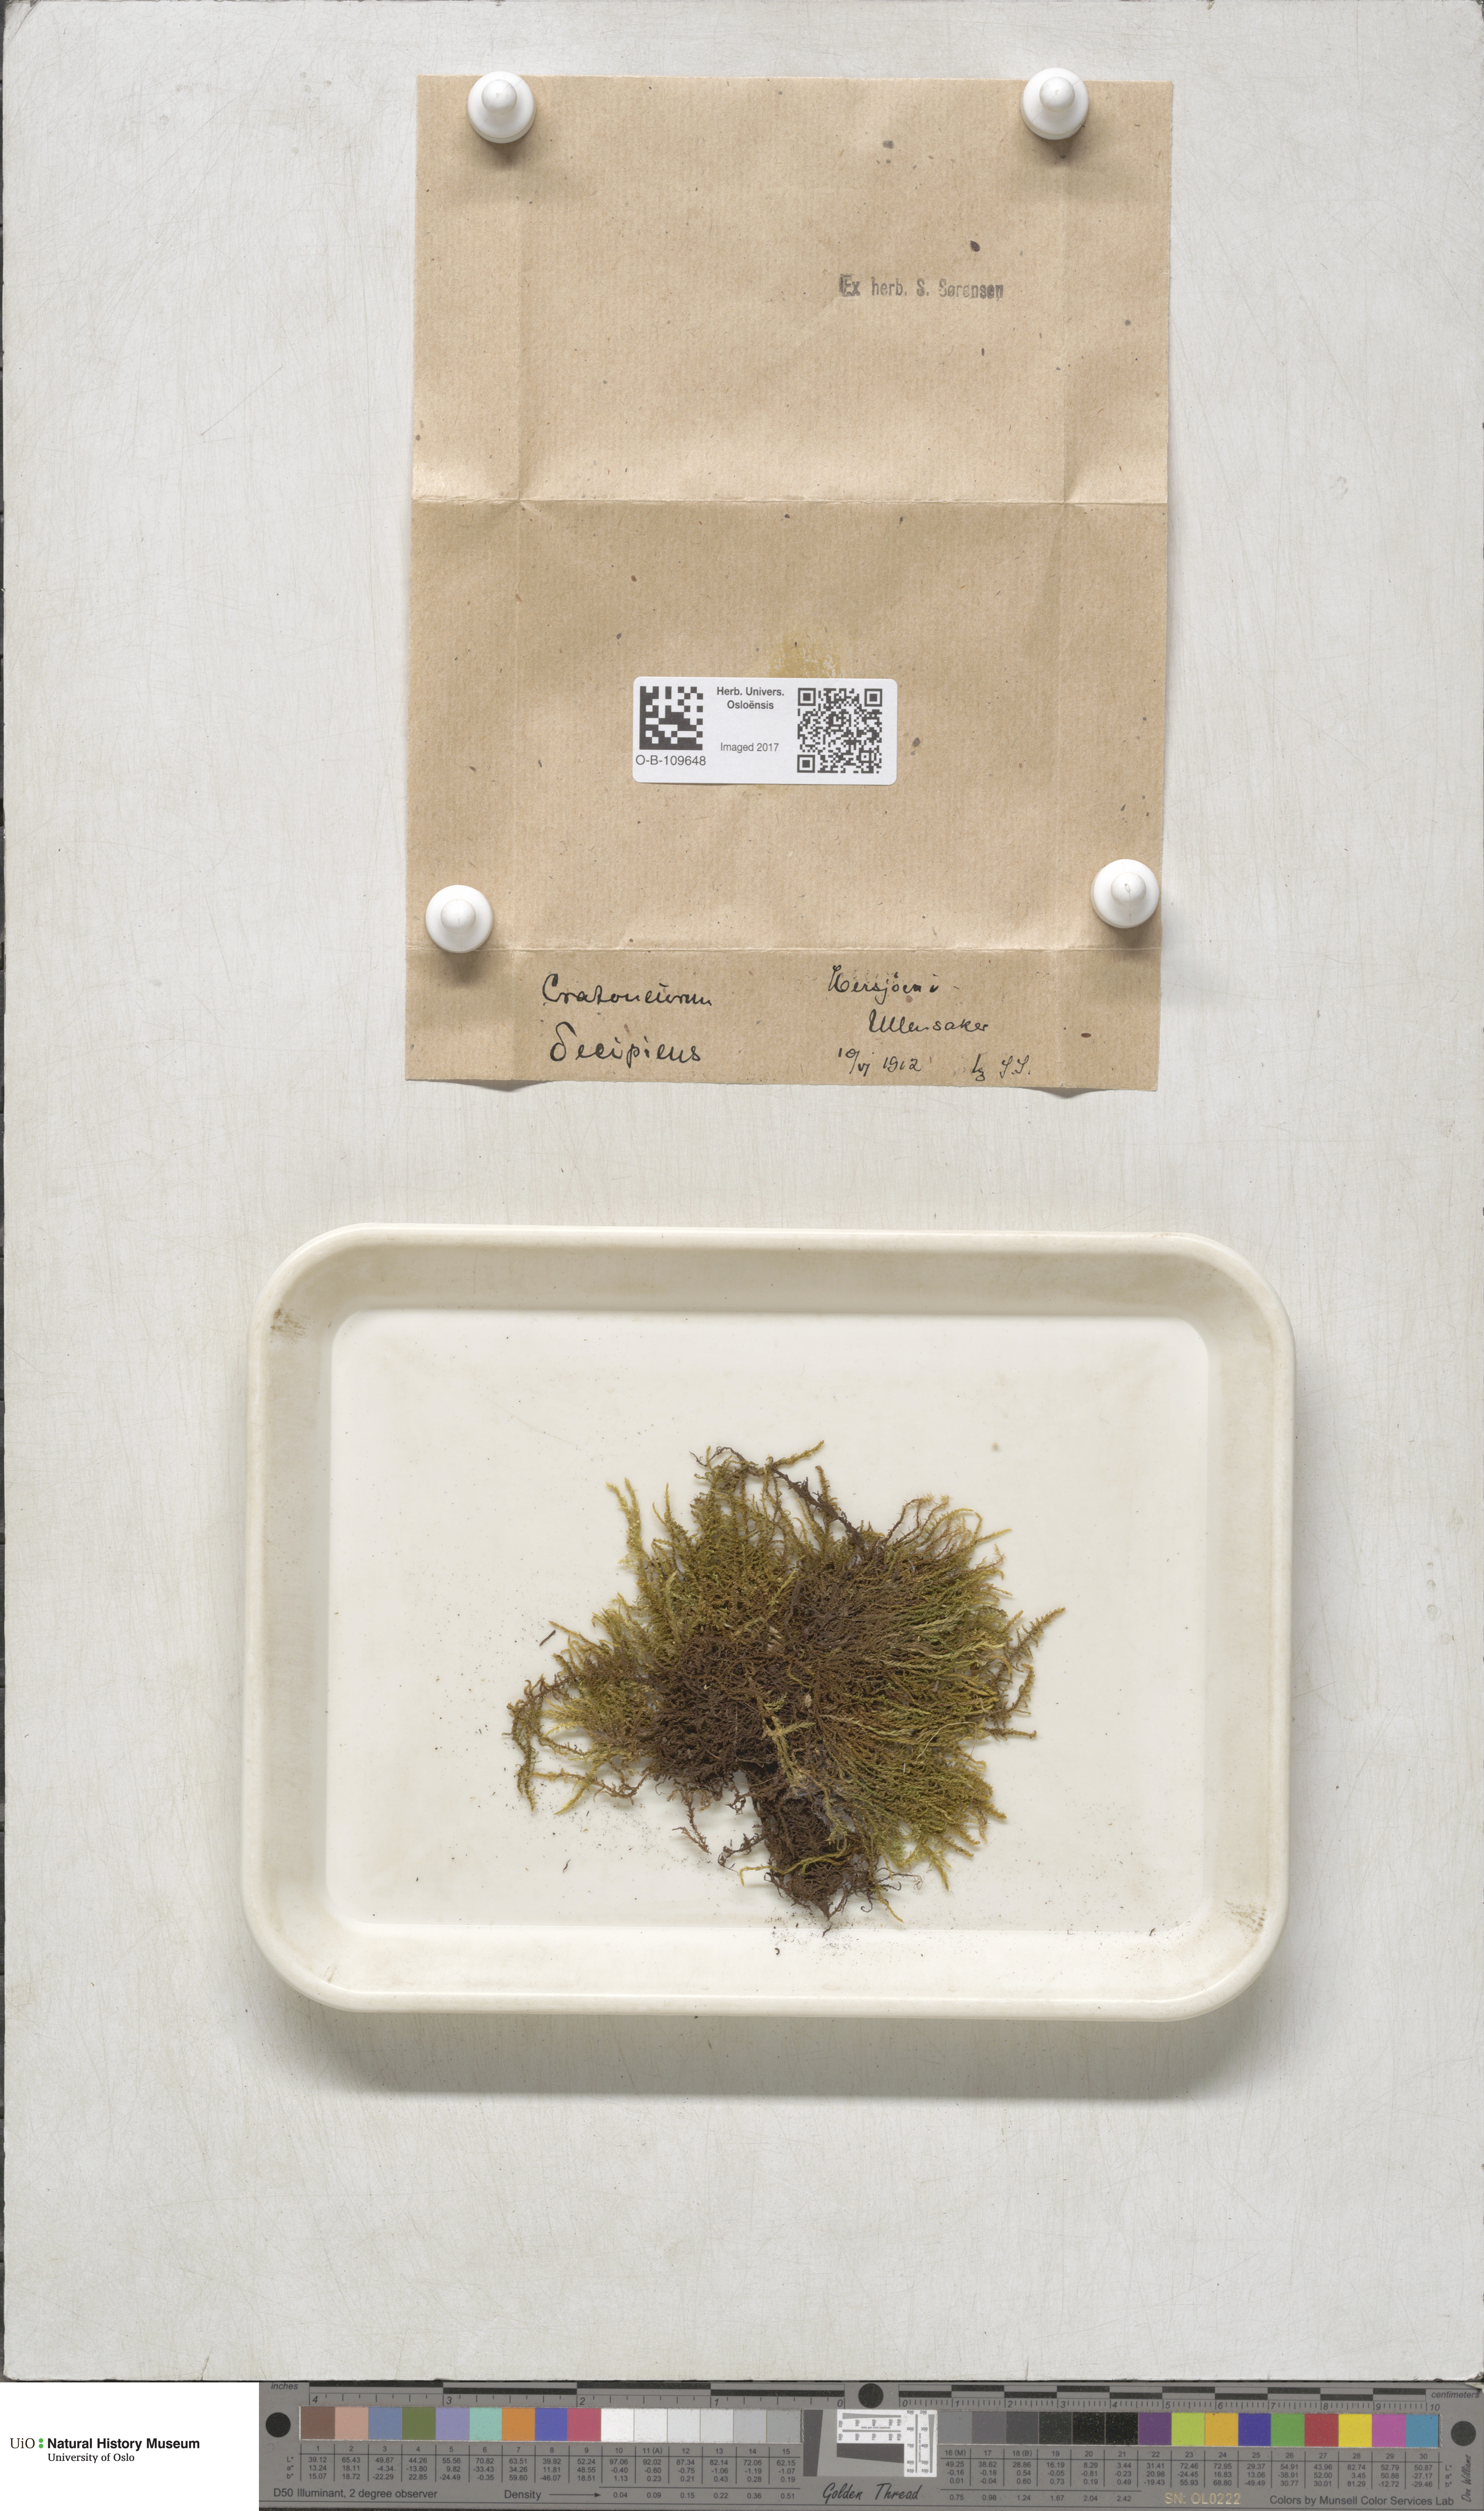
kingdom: Plantae
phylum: Bryophyta
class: Bryopsida
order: Hypnales
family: Amblystegiaceae
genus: Palustriella
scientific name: Palustriella decipiens
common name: Lesser curled hook-moss
